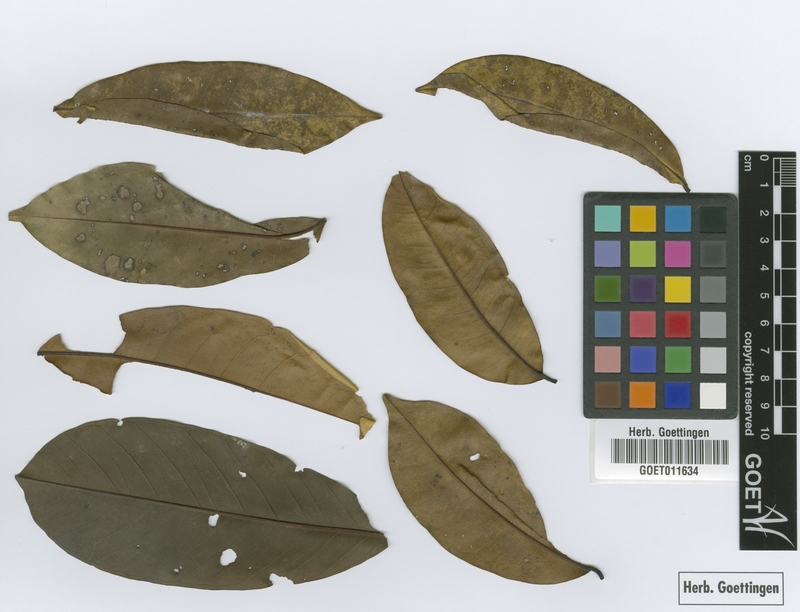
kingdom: Plantae
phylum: Tracheophyta
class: Magnoliopsida
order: Myrtales
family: Vochysiaceae
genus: Vochysia
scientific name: Vochysia tetraphylla
